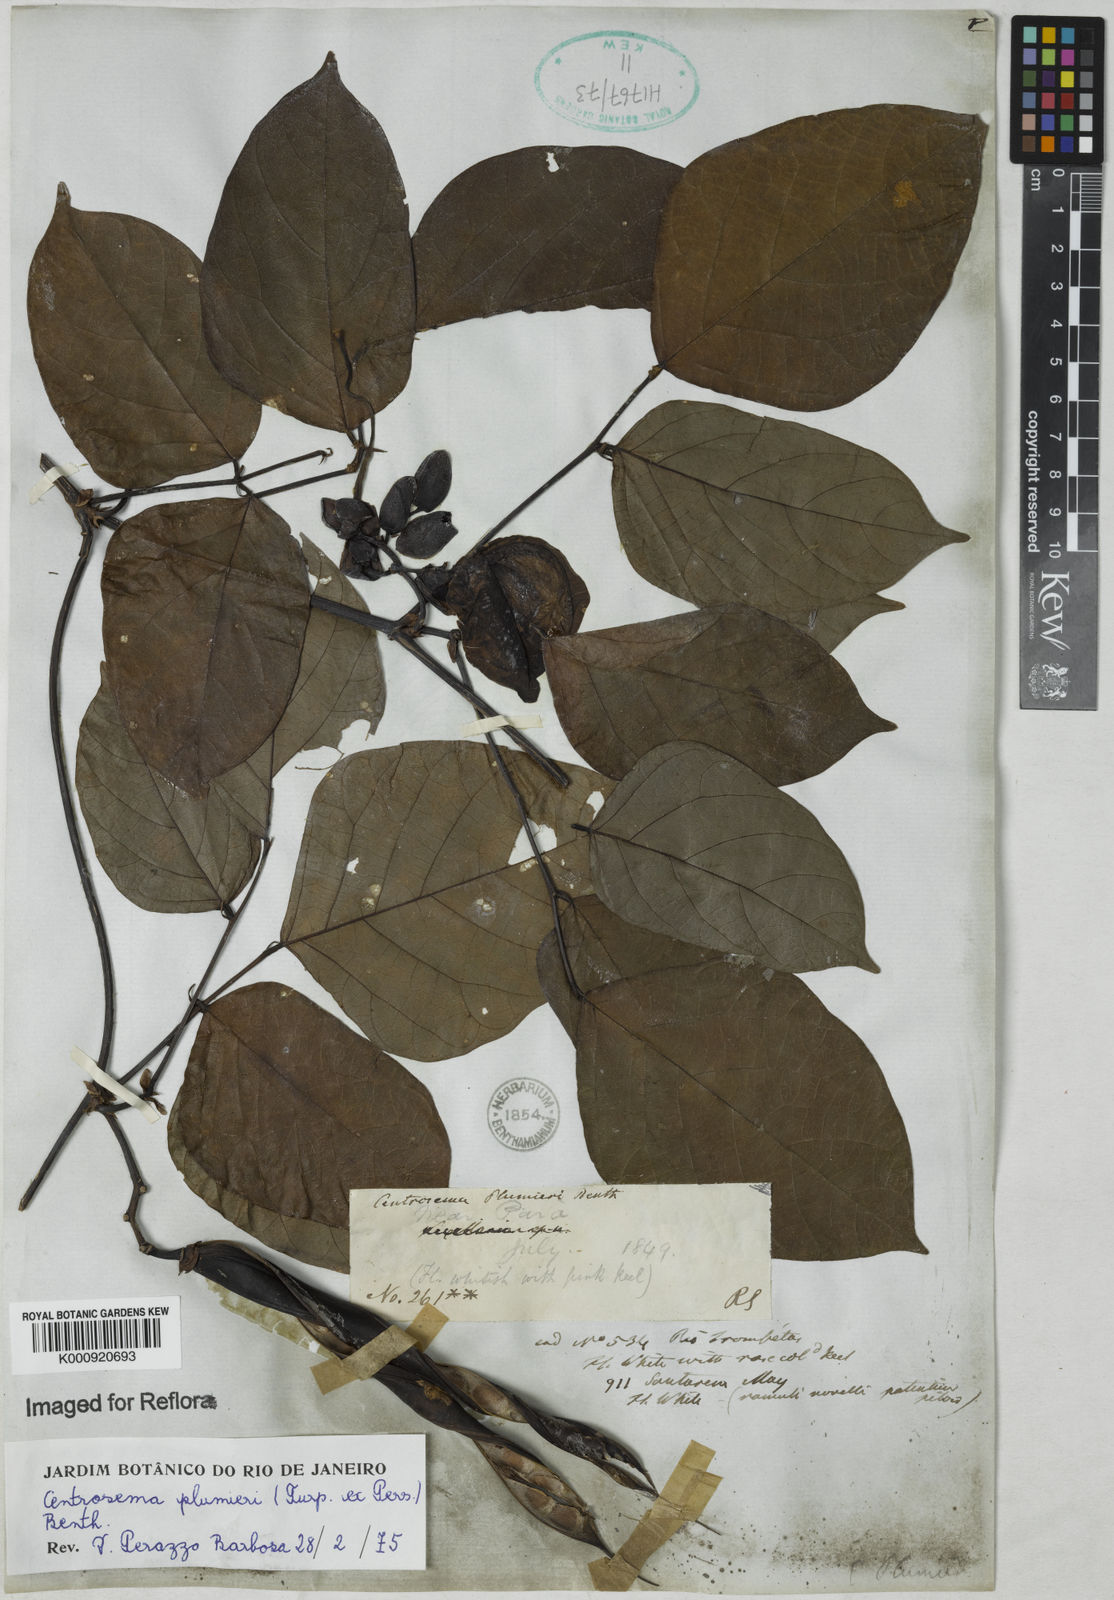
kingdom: Plantae
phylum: Tracheophyta
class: Magnoliopsida
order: Fabales
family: Fabaceae
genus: Centrosema
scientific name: Centrosema plumieri
